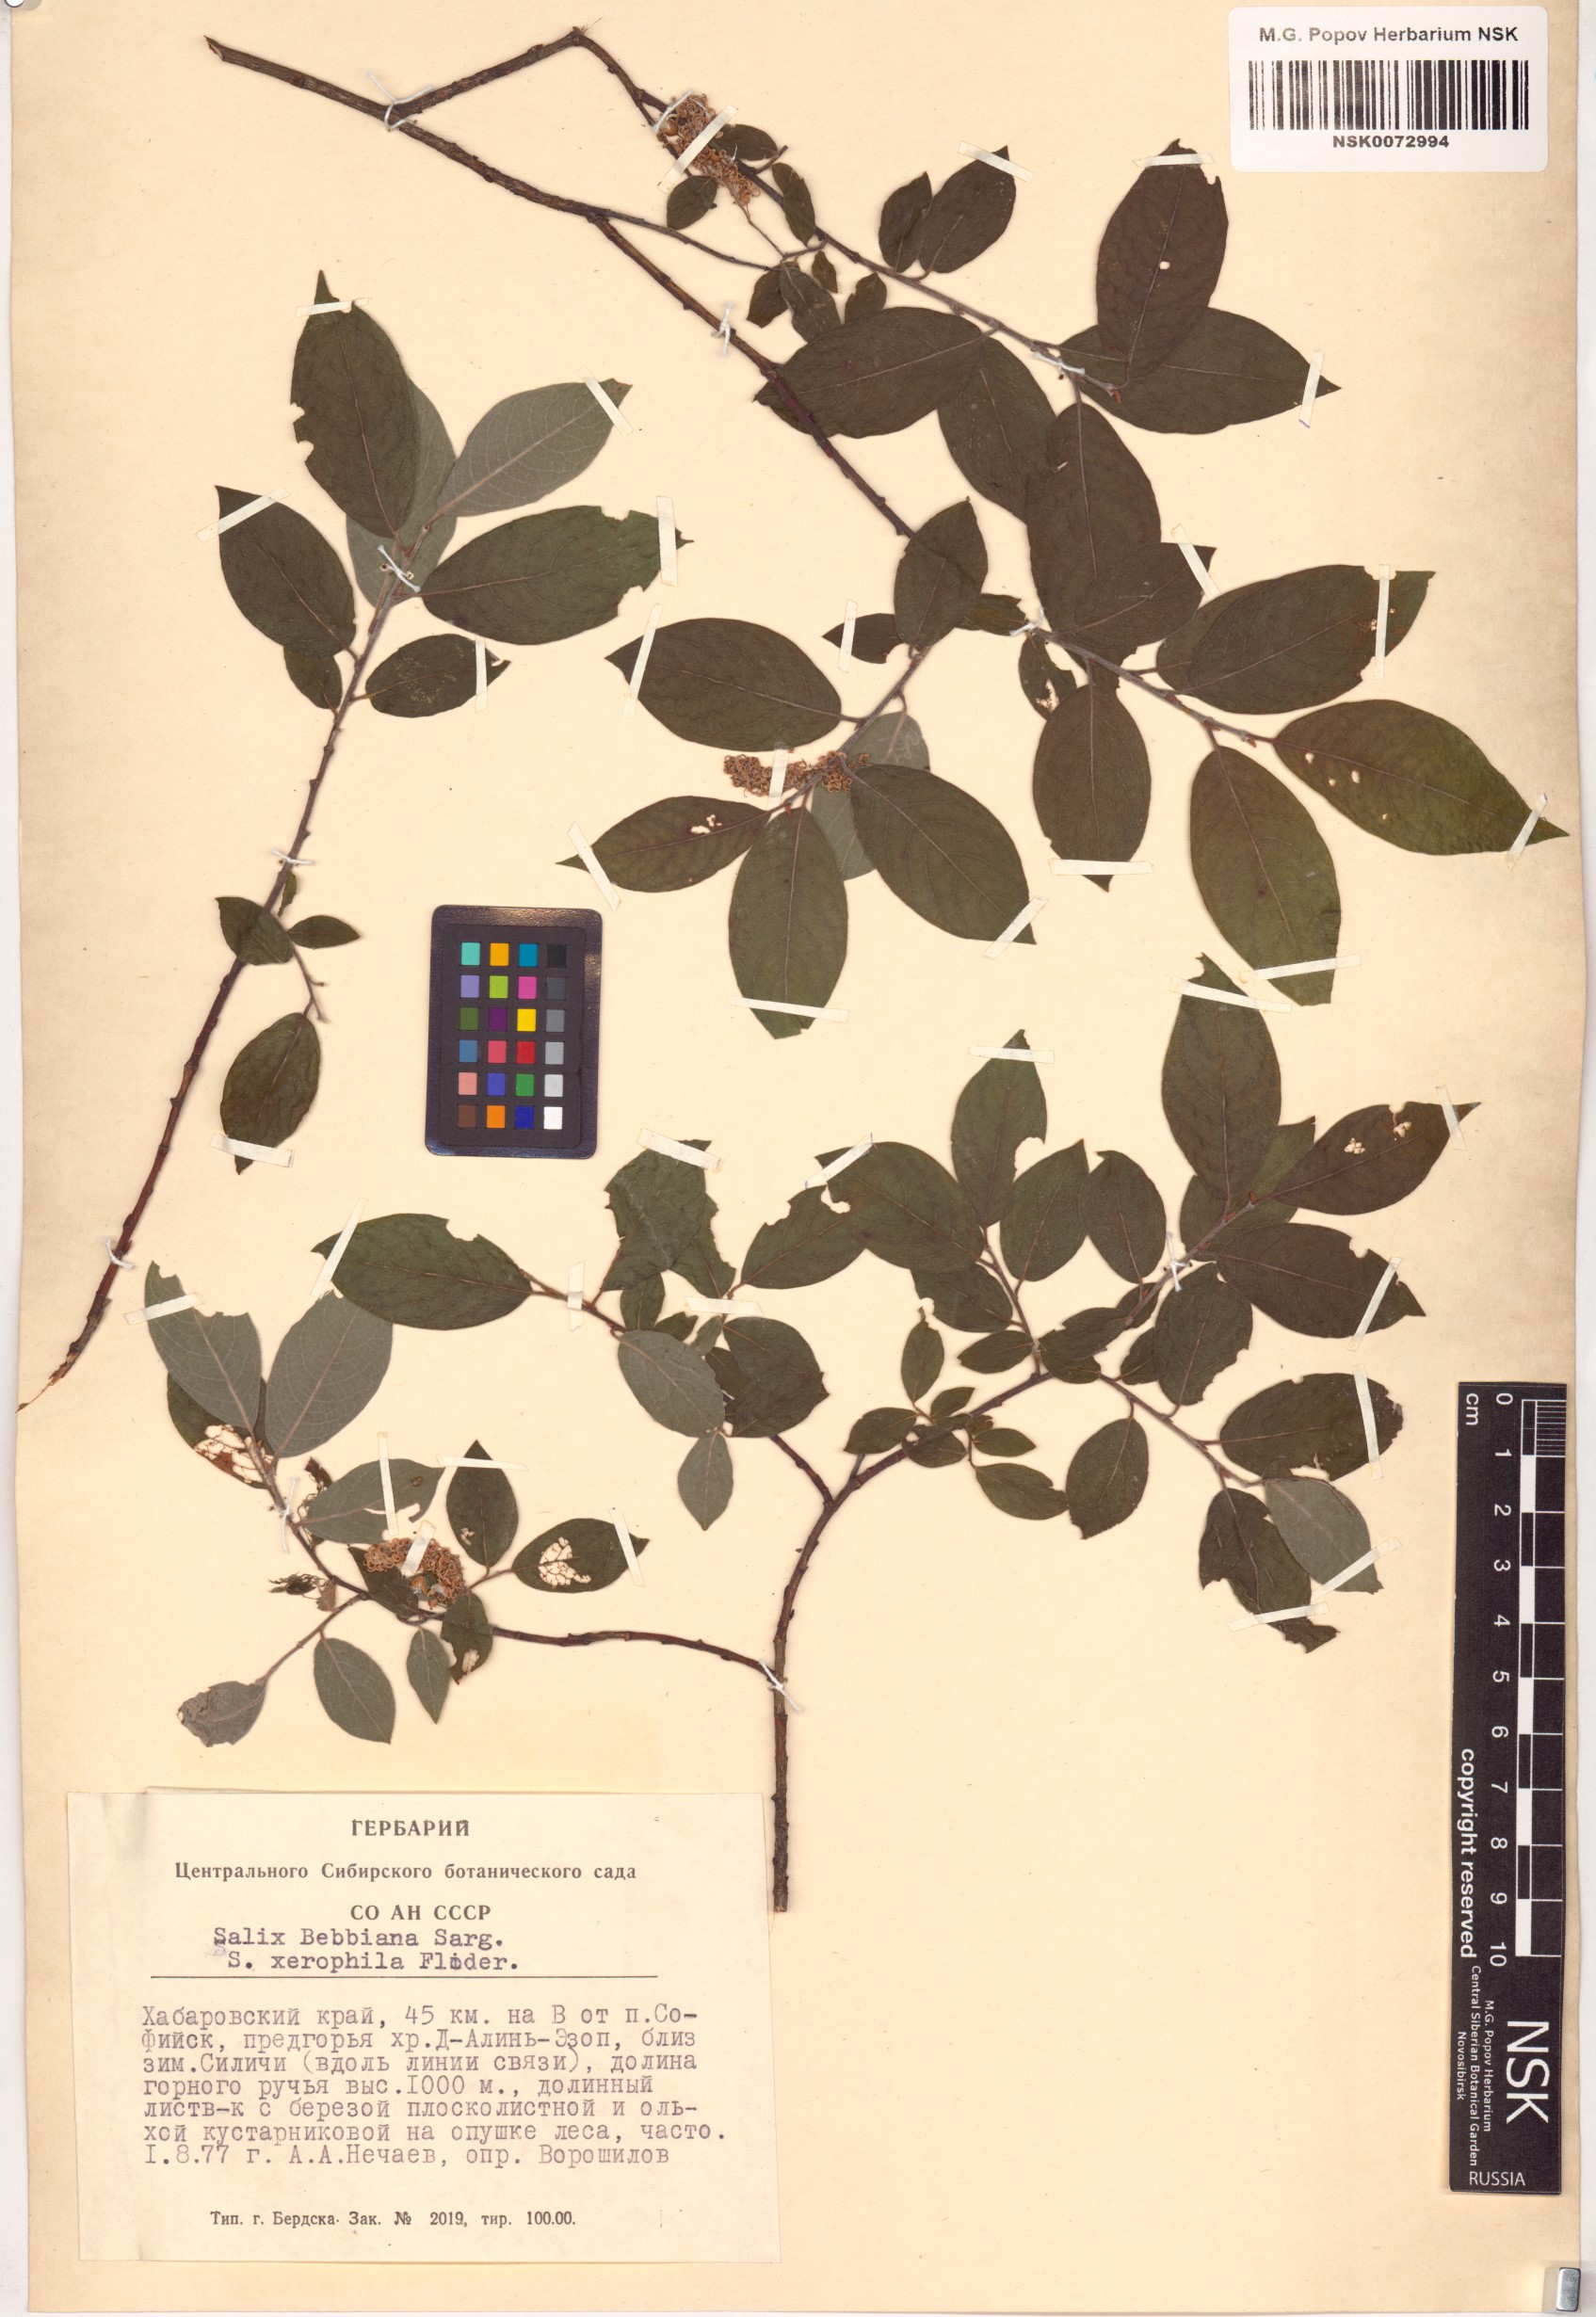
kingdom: Plantae
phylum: Tracheophyta
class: Magnoliopsida
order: Malpighiales
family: Salicaceae
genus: Salix
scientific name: Salix bebbiana
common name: Bebb's willow
